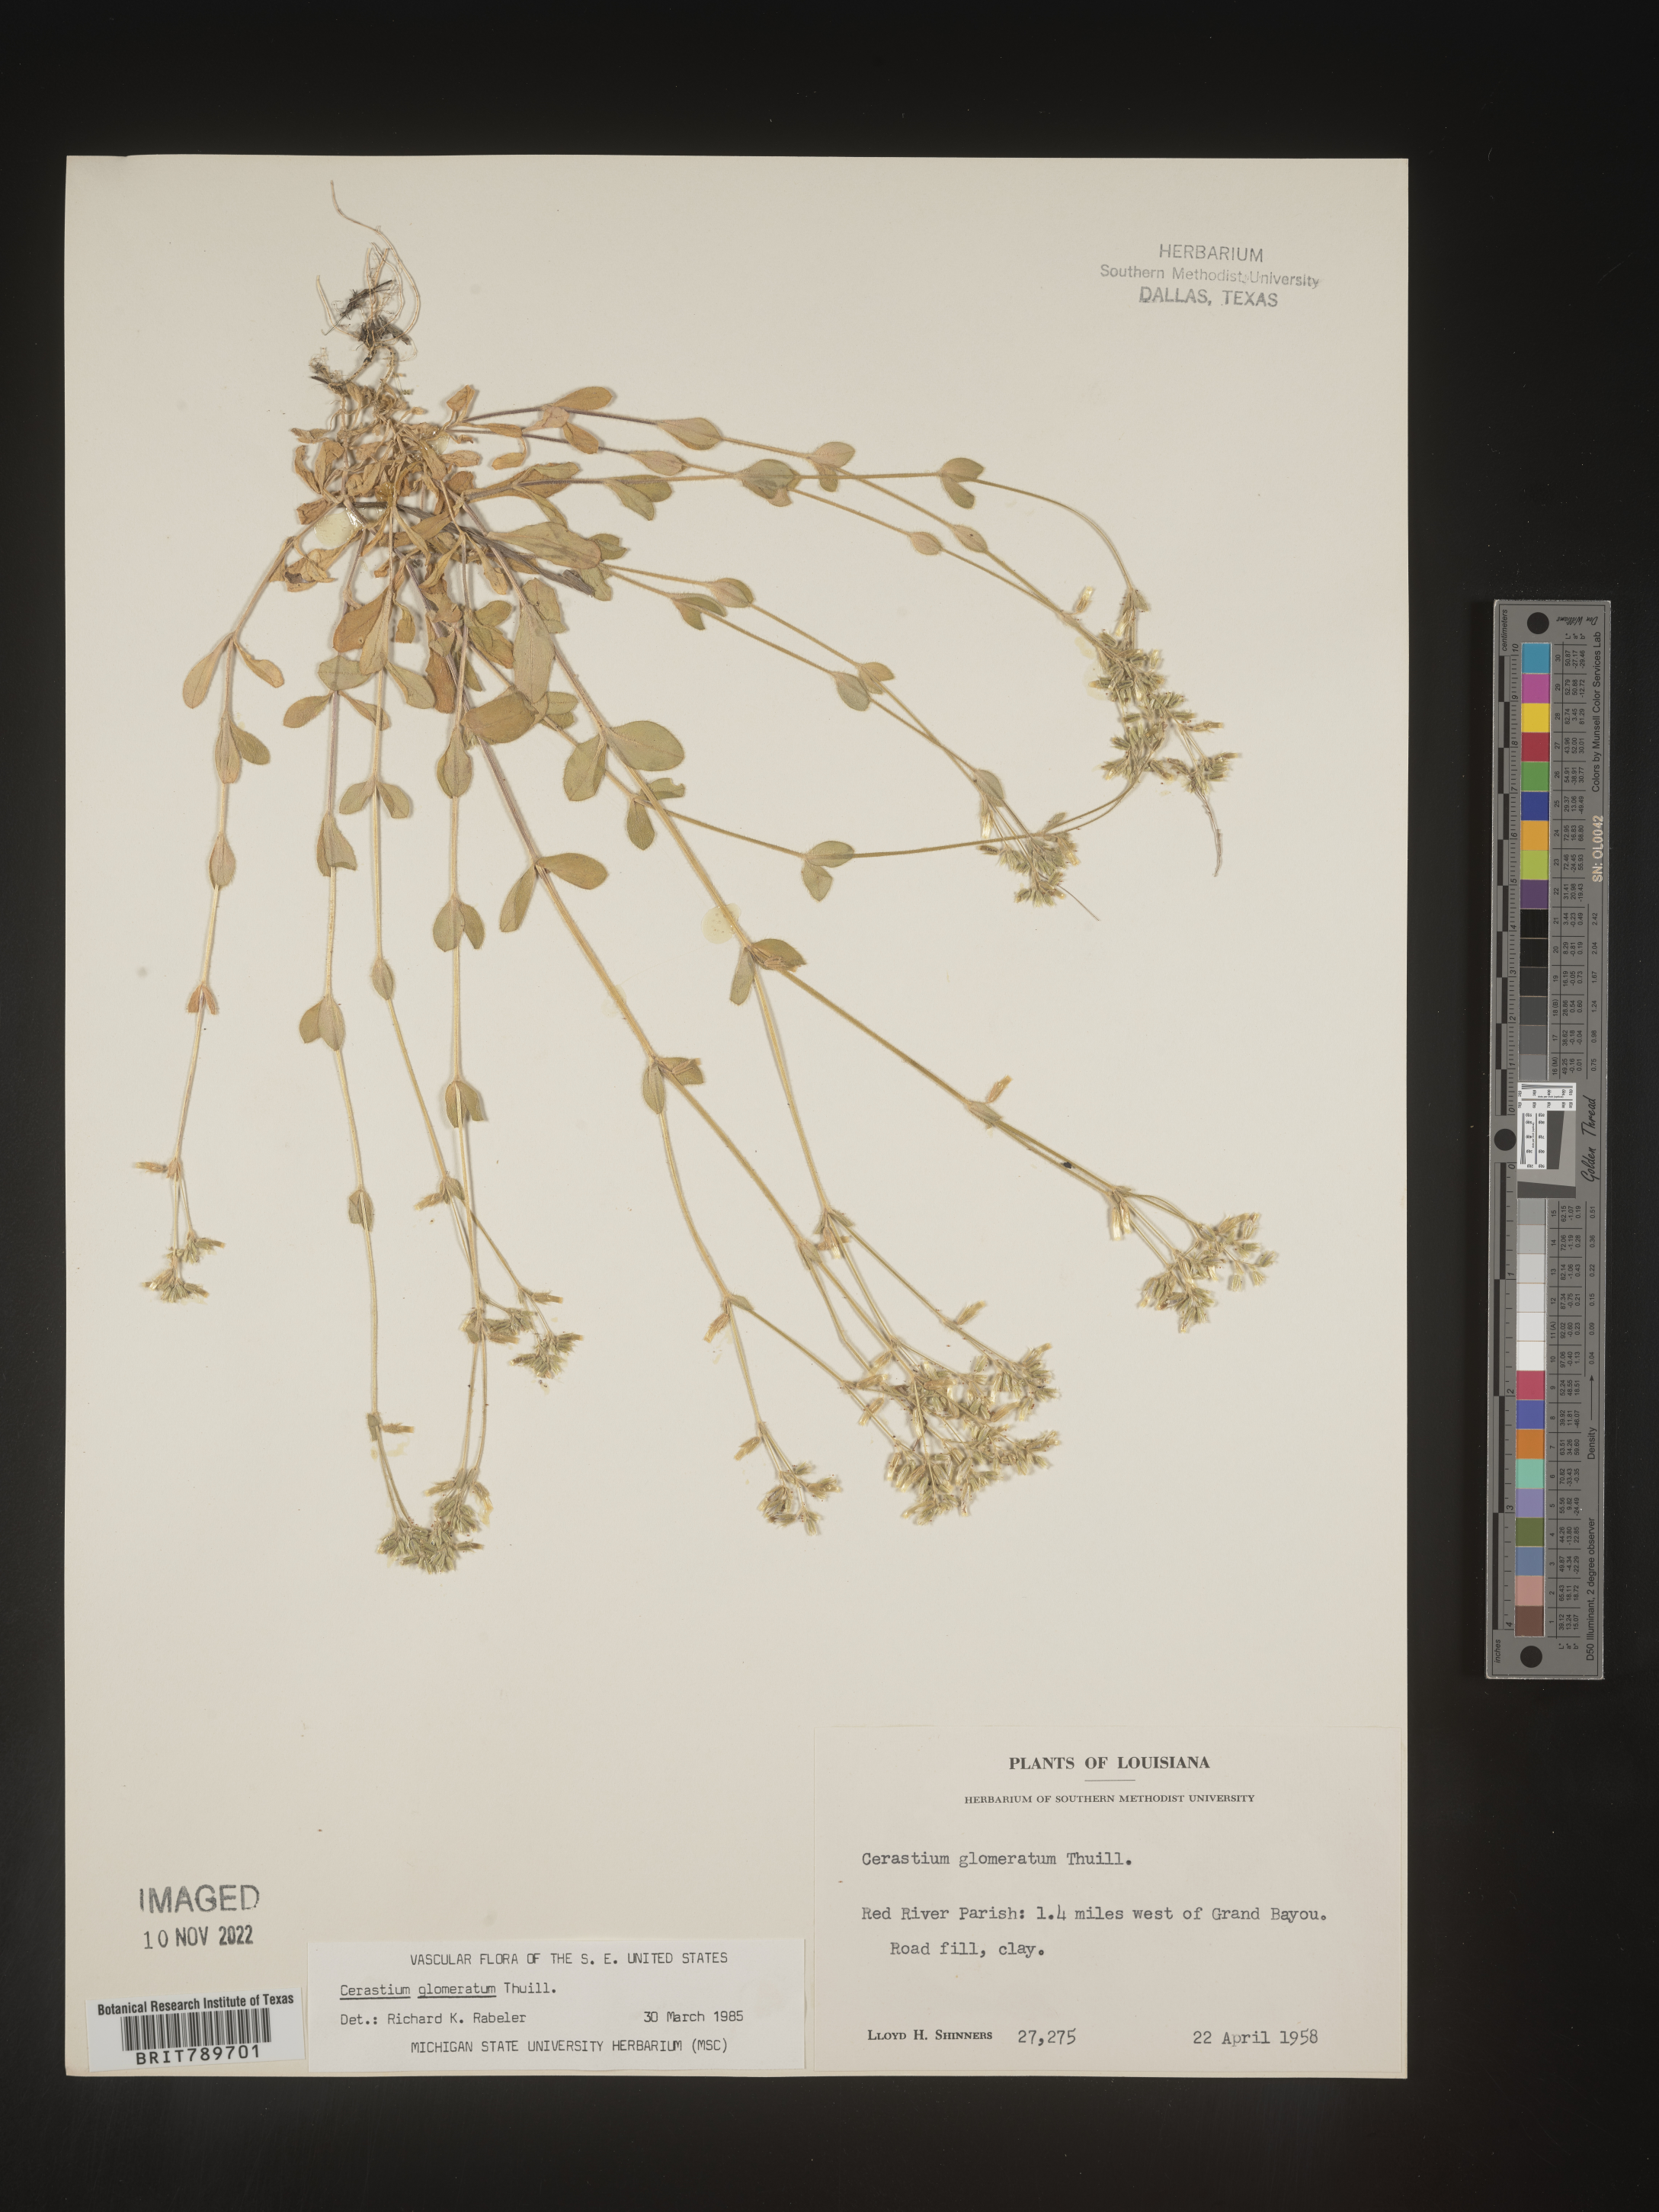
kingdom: Plantae
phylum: Tracheophyta
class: Magnoliopsida
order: Caryophyllales
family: Caryophyllaceae
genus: Cerastium
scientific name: Cerastium glomeratum
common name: Sticky chickweed
